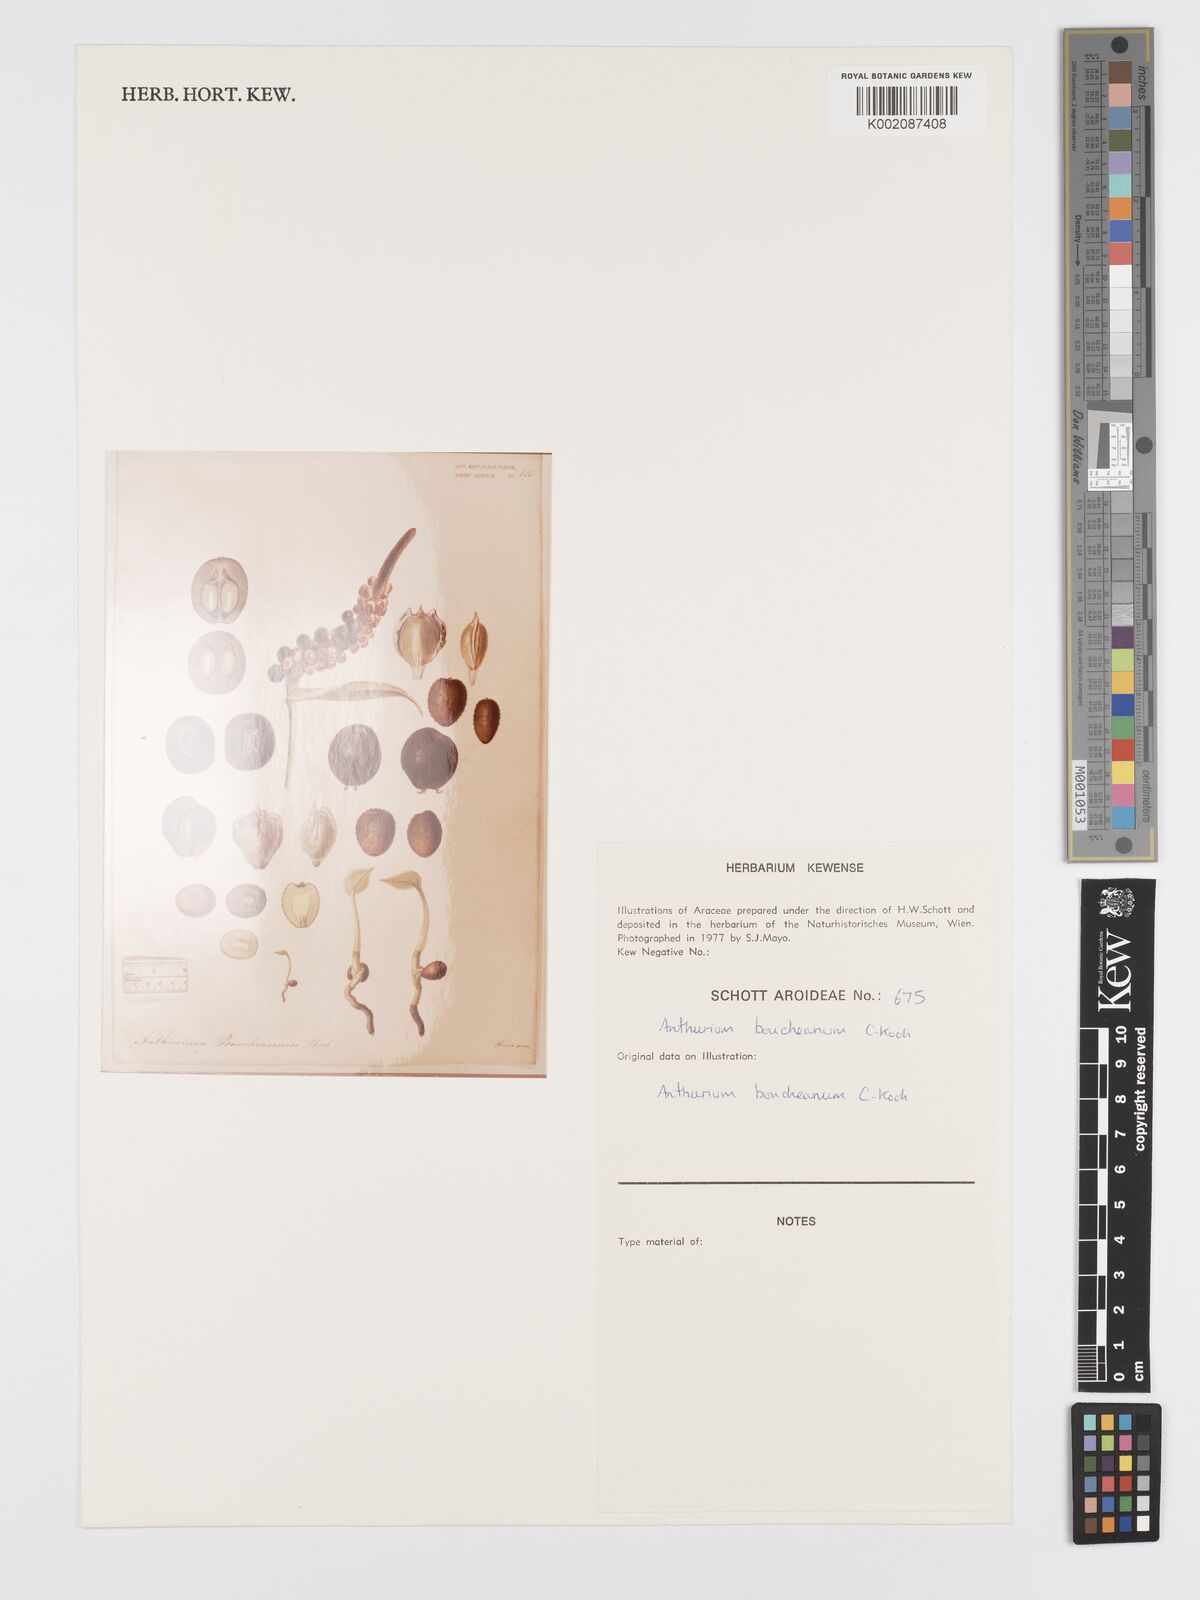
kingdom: Plantae
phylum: Tracheophyta
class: Liliopsida
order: Alismatales
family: Araceae
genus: Anthurium
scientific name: Anthurium cartilagineum
